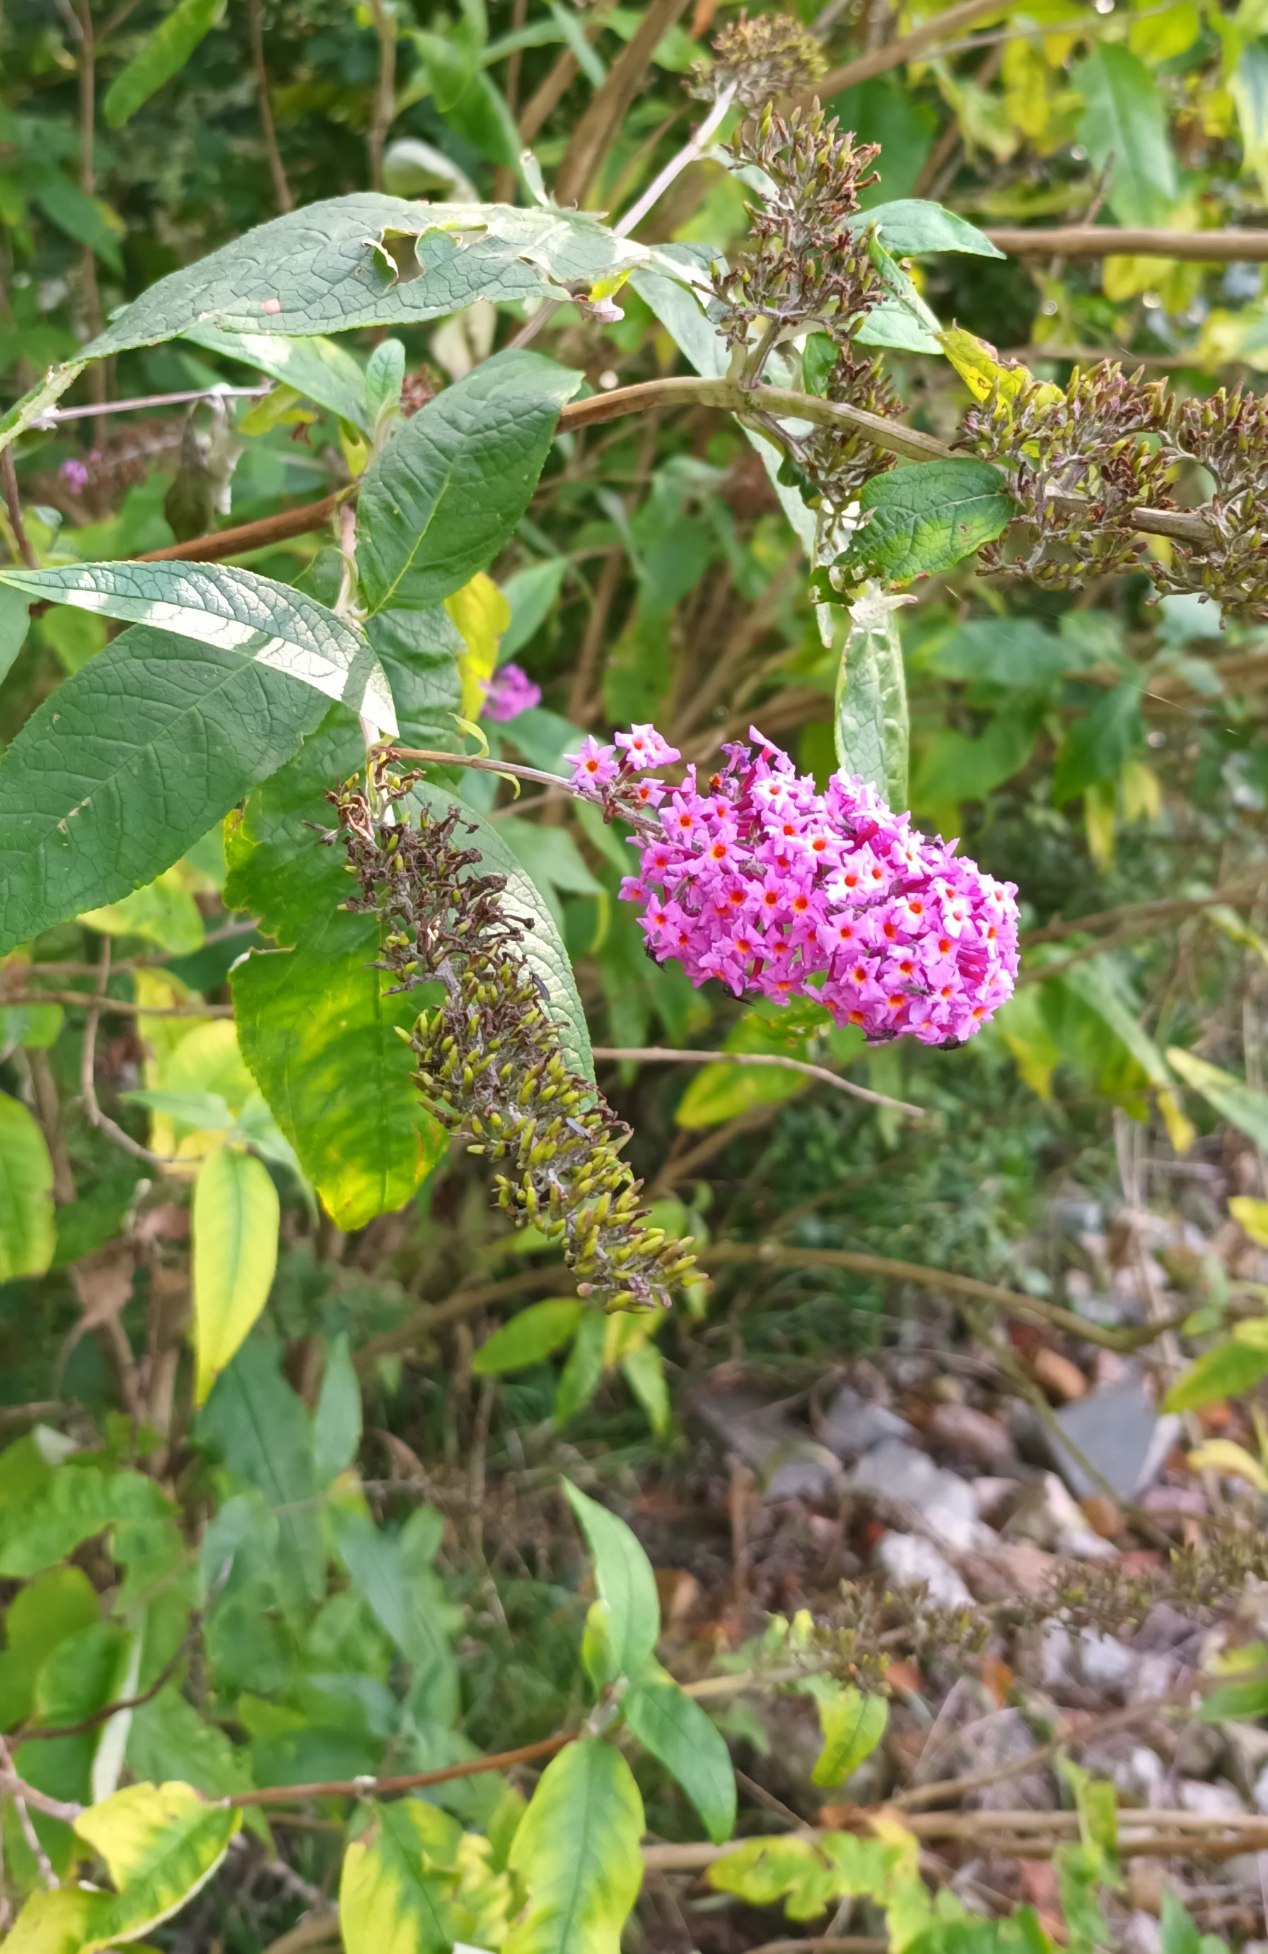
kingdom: Plantae
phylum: Tracheophyta
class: Magnoliopsida
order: Lamiales
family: Scrophulariaceae
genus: Buddleja
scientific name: Buddleja davidii
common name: Sommerfuglebusk
